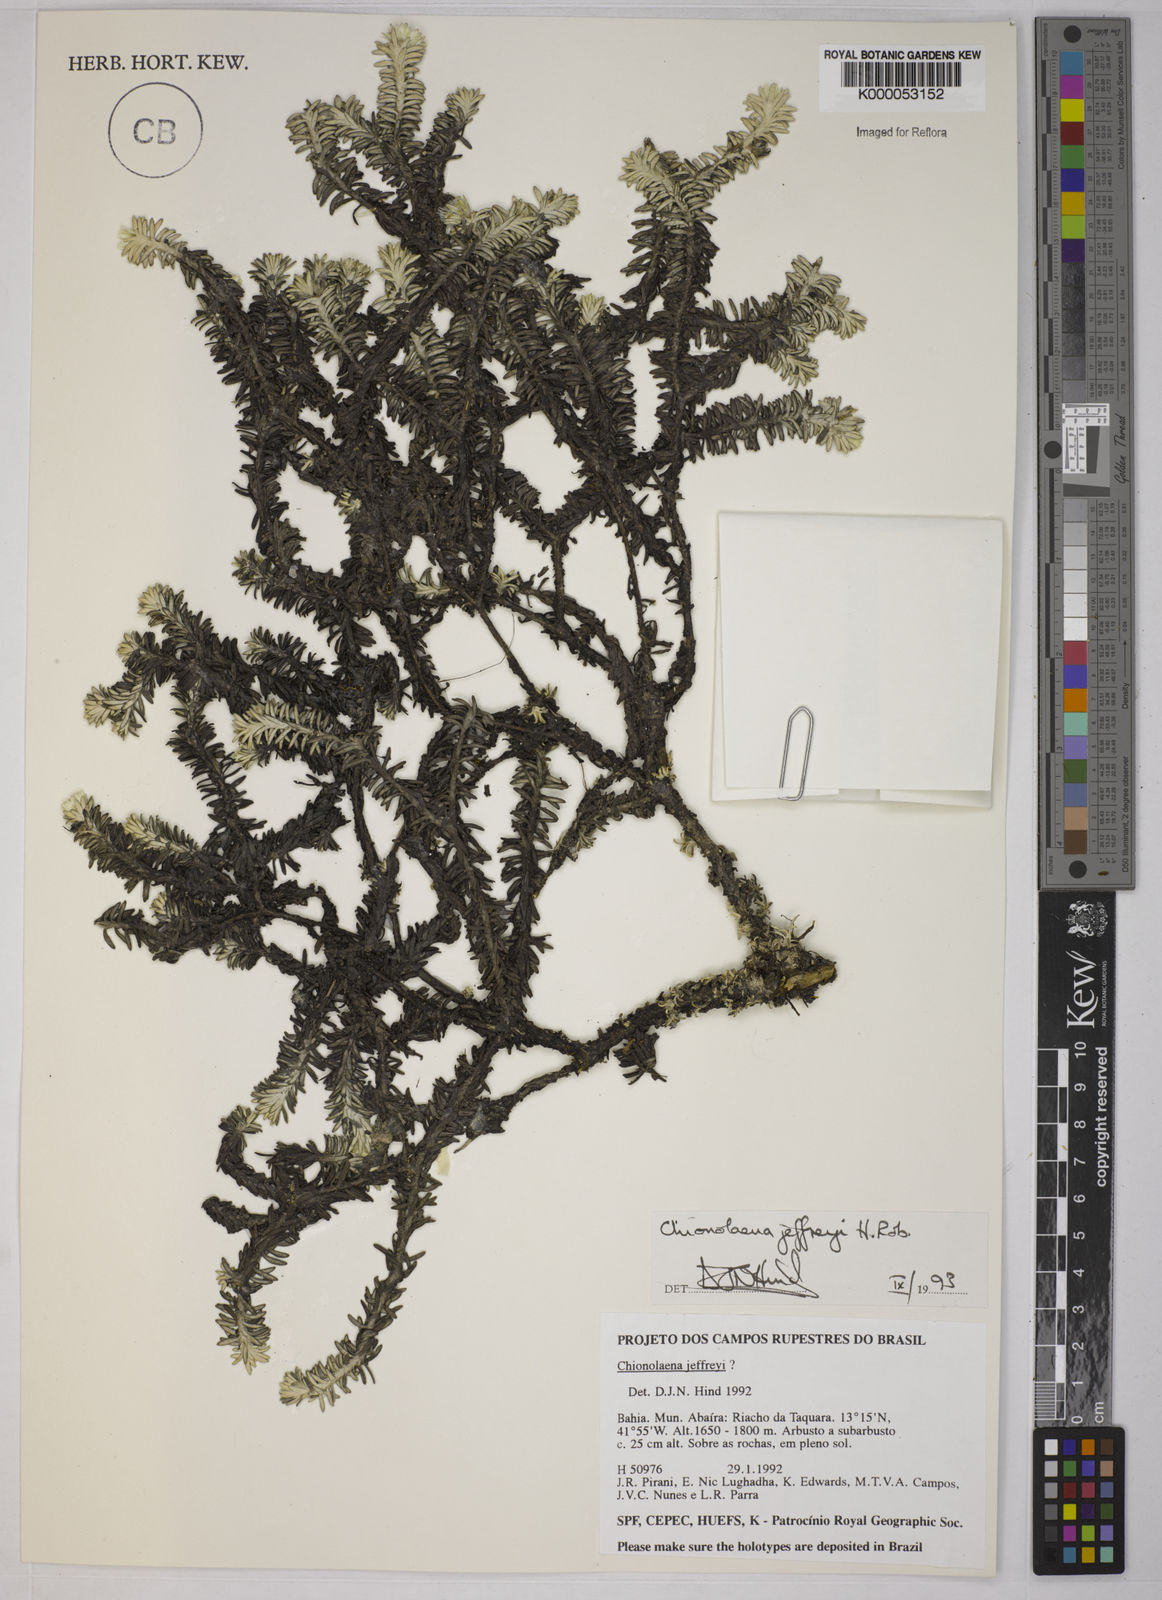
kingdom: Plantae
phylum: Tracheophyta
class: Magnoliopsida
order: Asterales
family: Asteraceae
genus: Chionolaena
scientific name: Chionolaena jeffreyi
